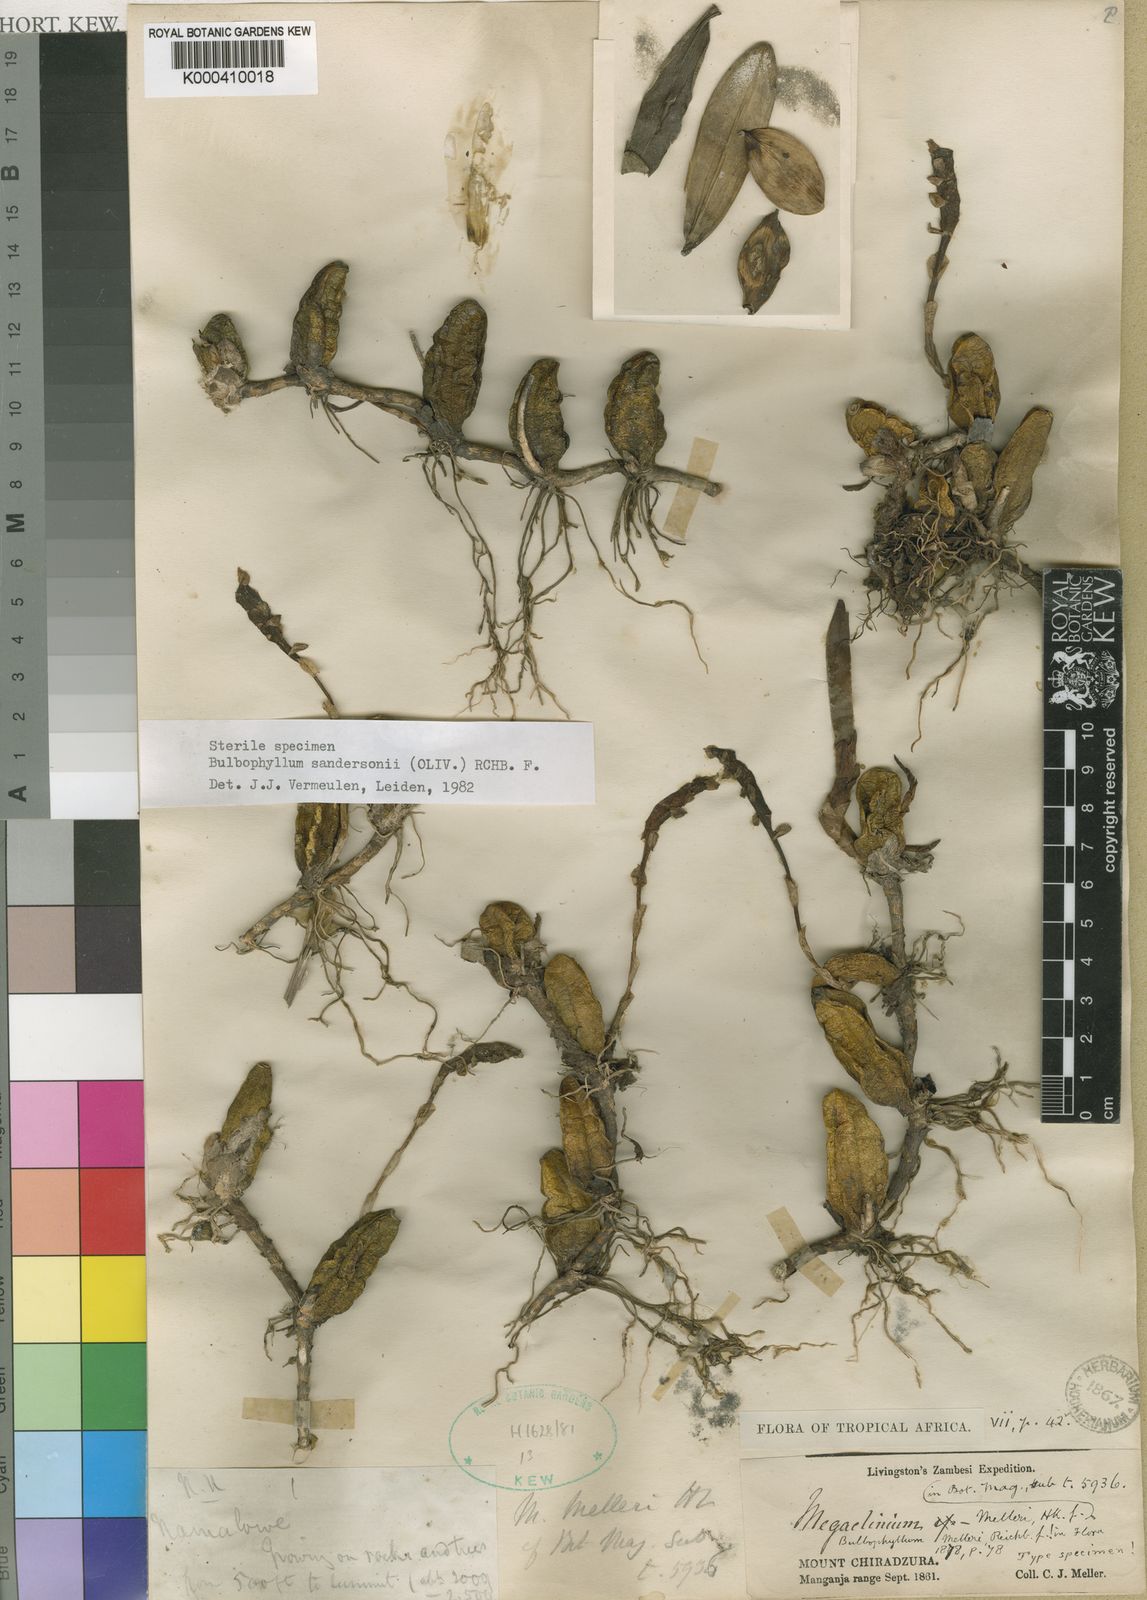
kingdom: Plantae
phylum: Tracheophyta
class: Liliopsida
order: Asparagales
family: Orchidaceae
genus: Bulbophyllum
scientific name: Bulbophyllum sandersonii
